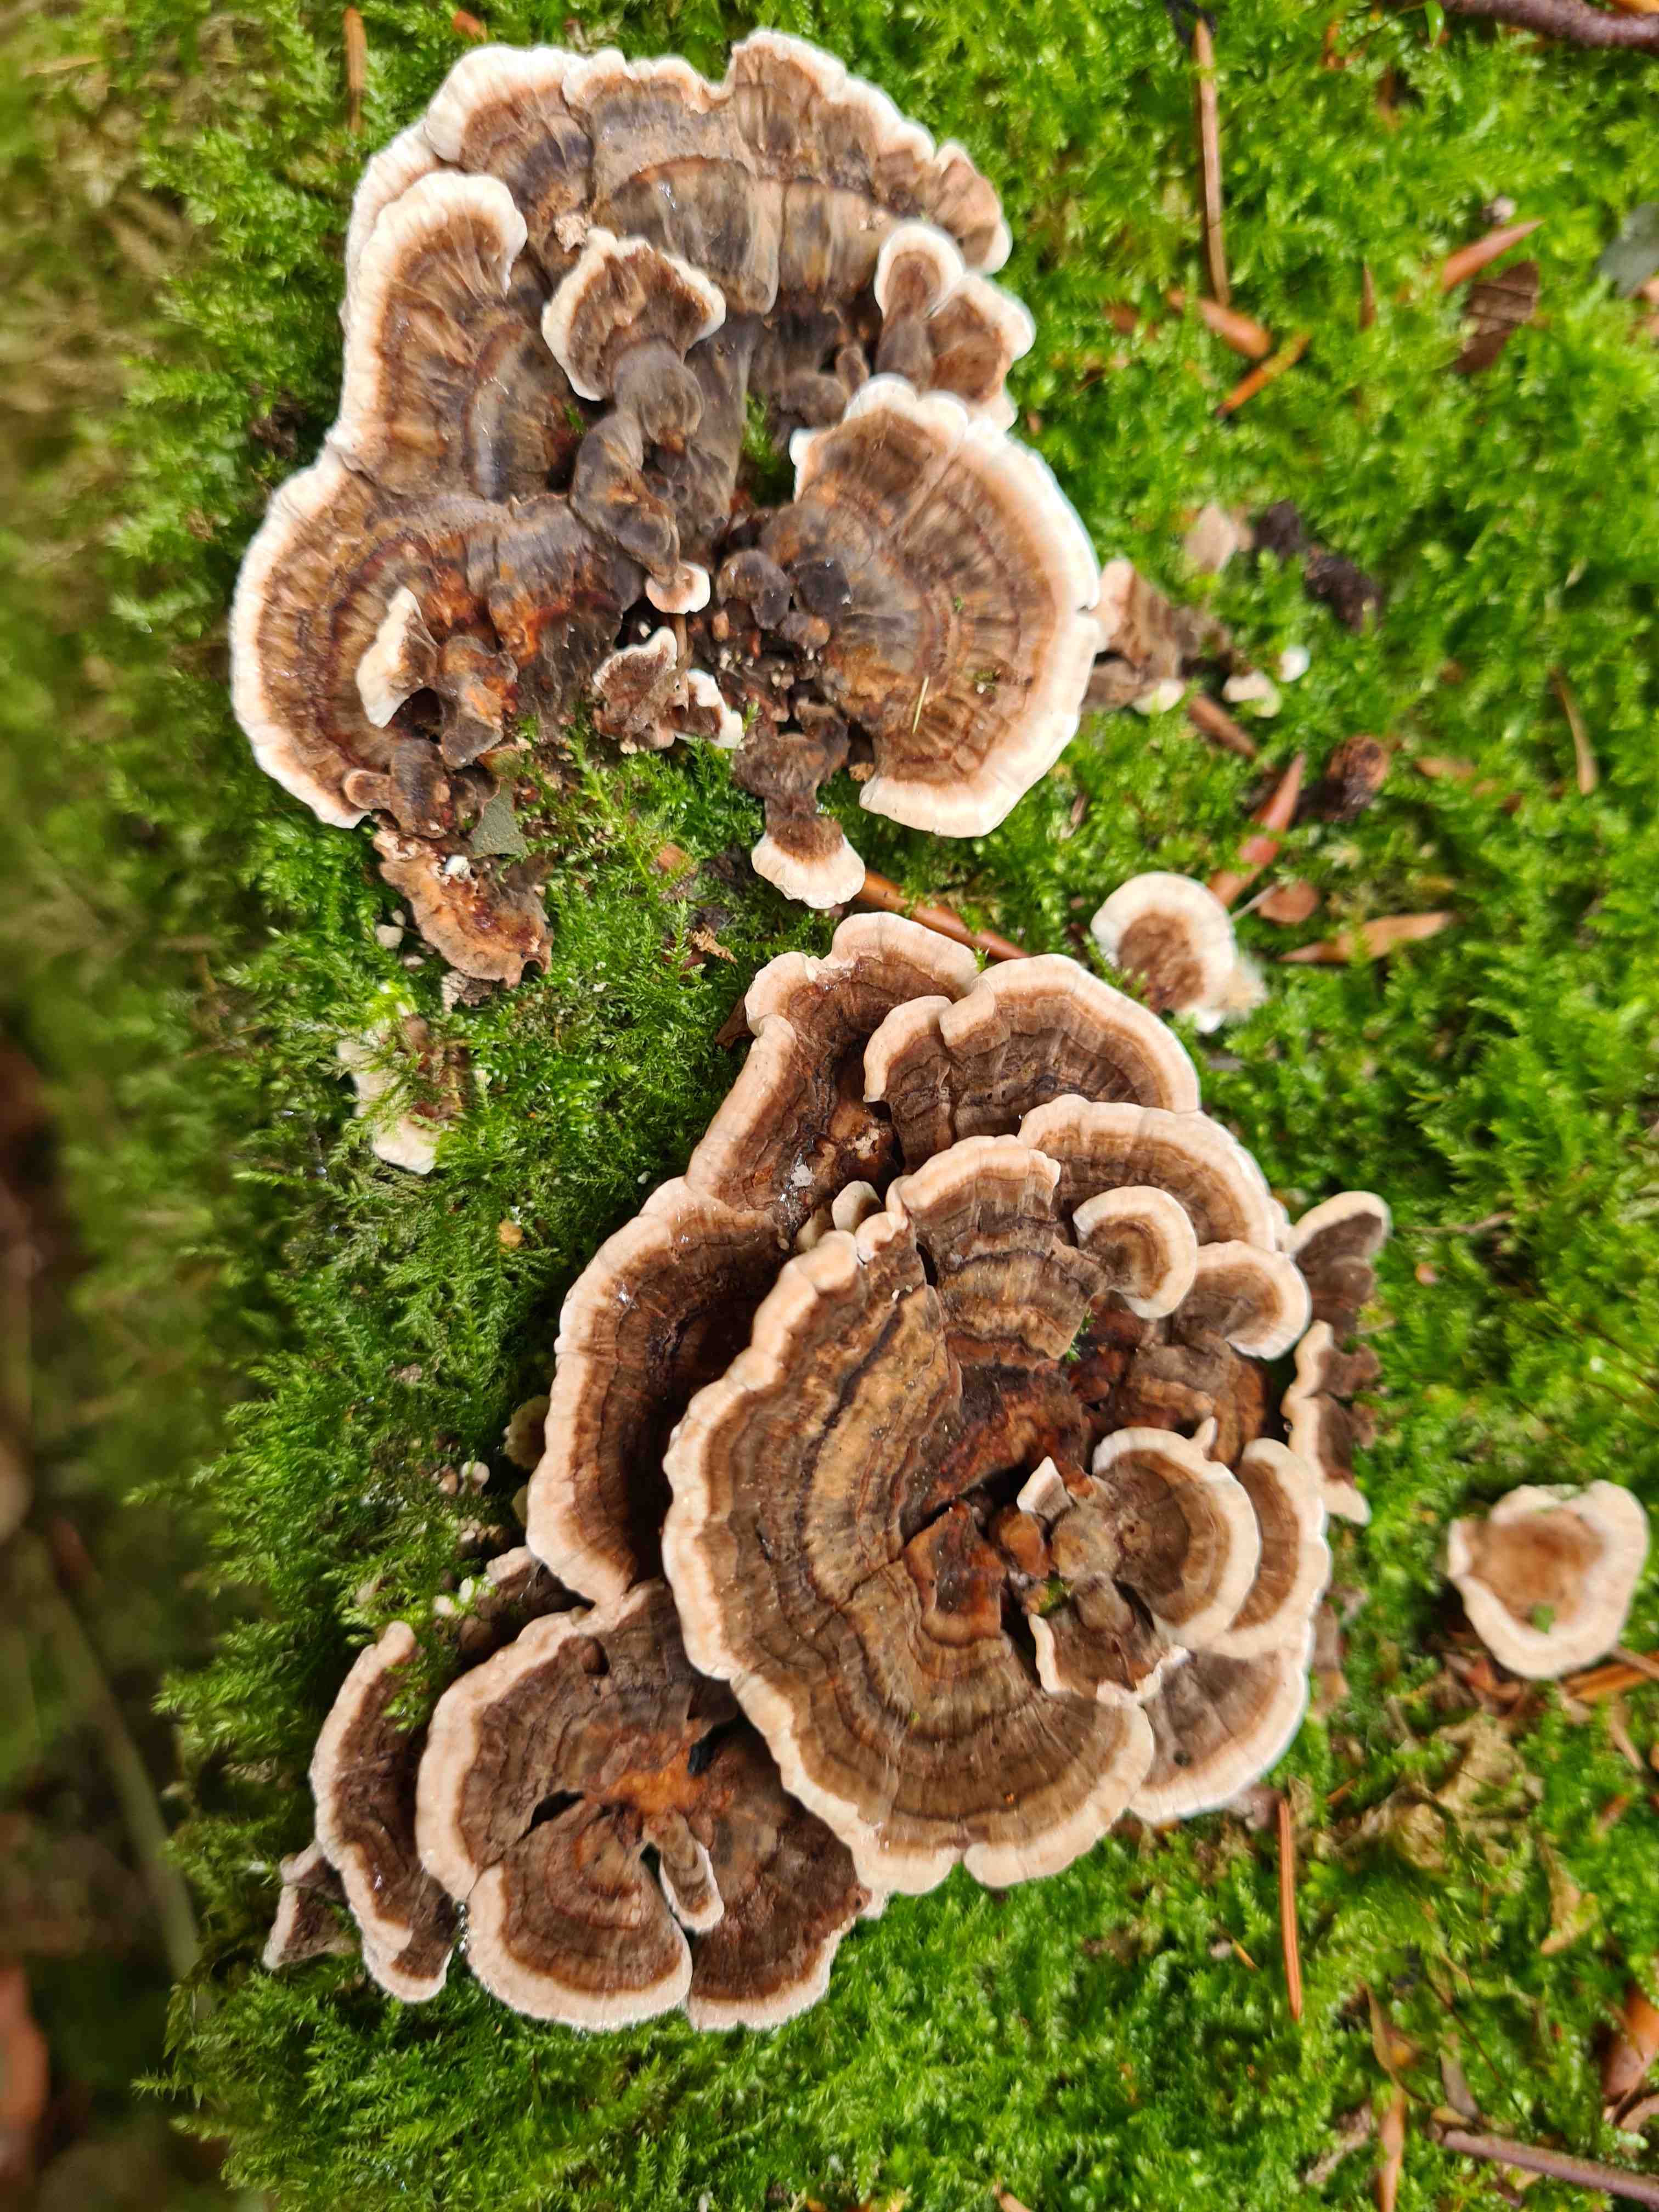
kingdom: Fungi
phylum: Basidiomycota
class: Agaricomycetes
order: Polyporales
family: Polyporaceae
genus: Trametes
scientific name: Trametes versicolor
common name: broget læderporesvamp
